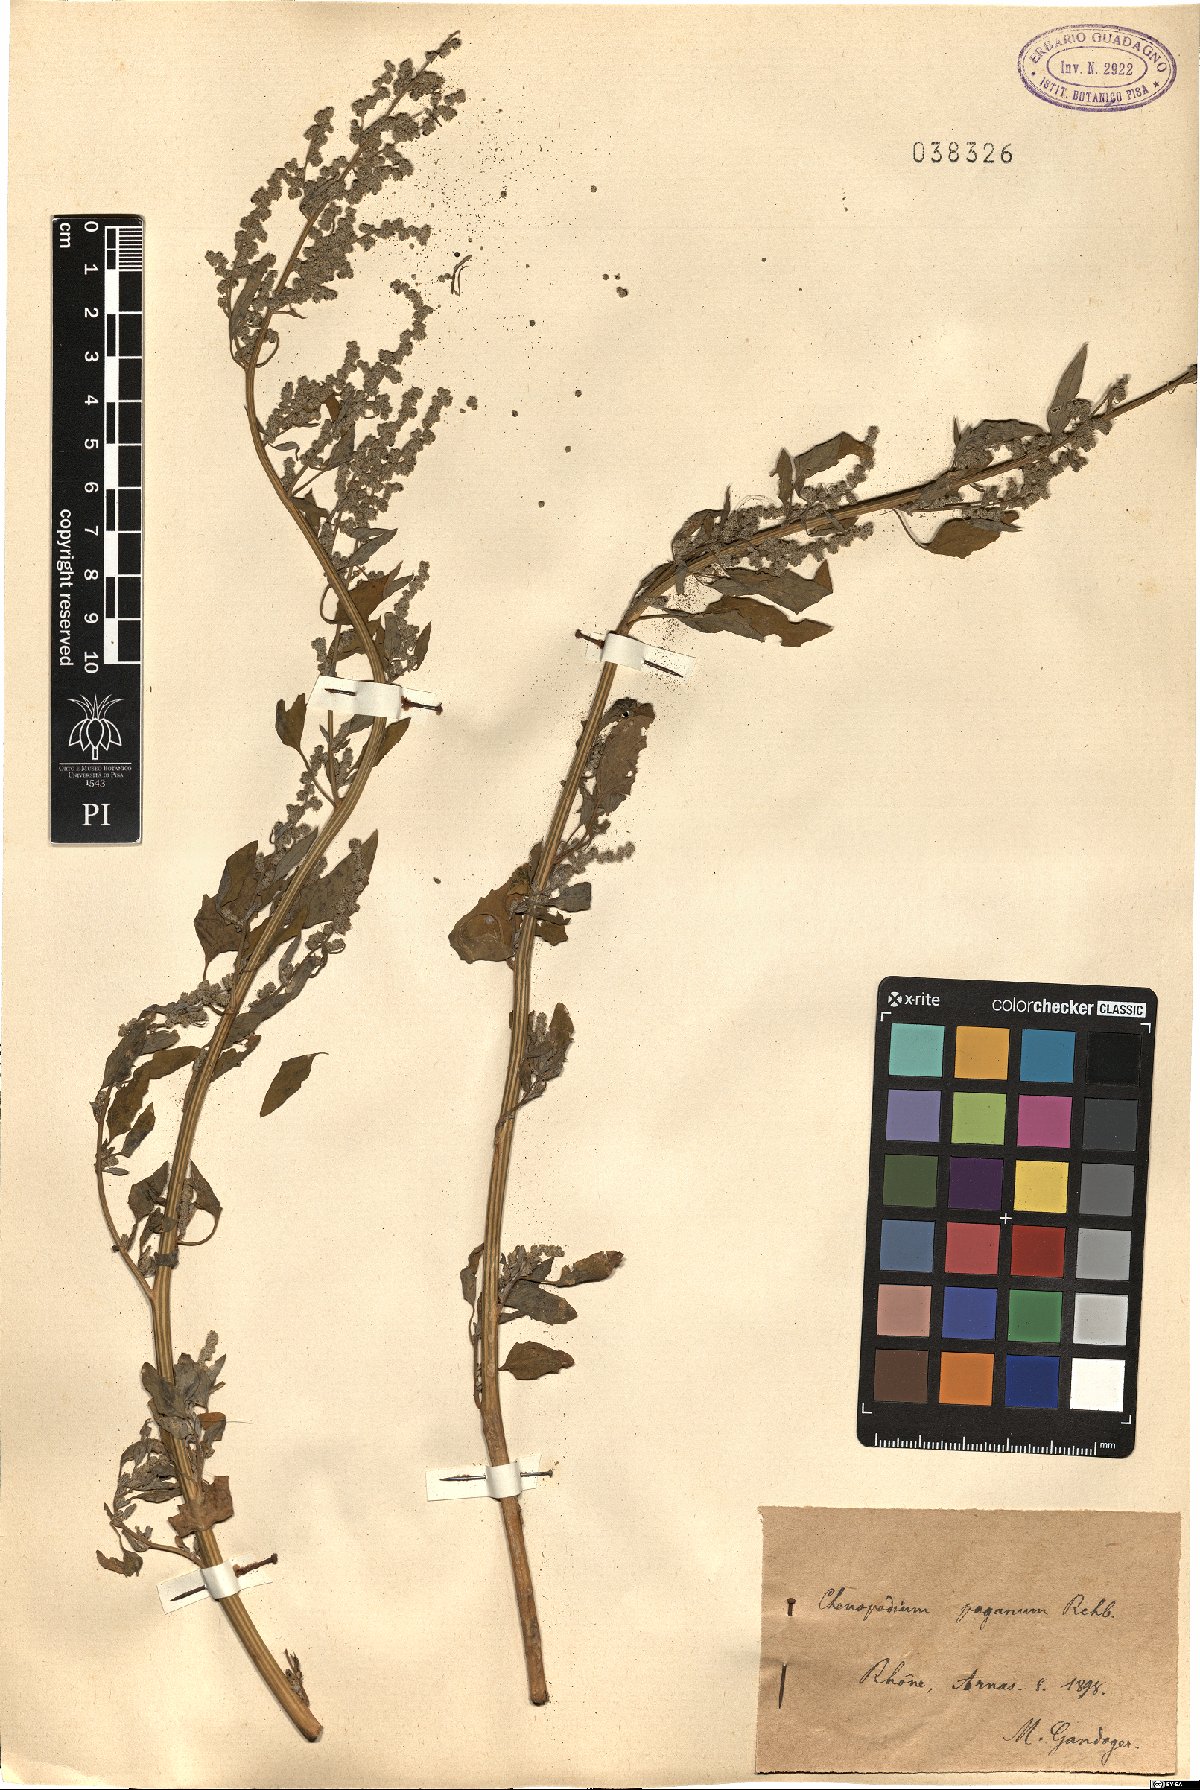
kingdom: Plantae
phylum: Tracheophyta
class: Magnoliopsida
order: Caryophyllales
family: Amaranthaceae
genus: Chenopodium
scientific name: Chenopodium album
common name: Fat-hen
